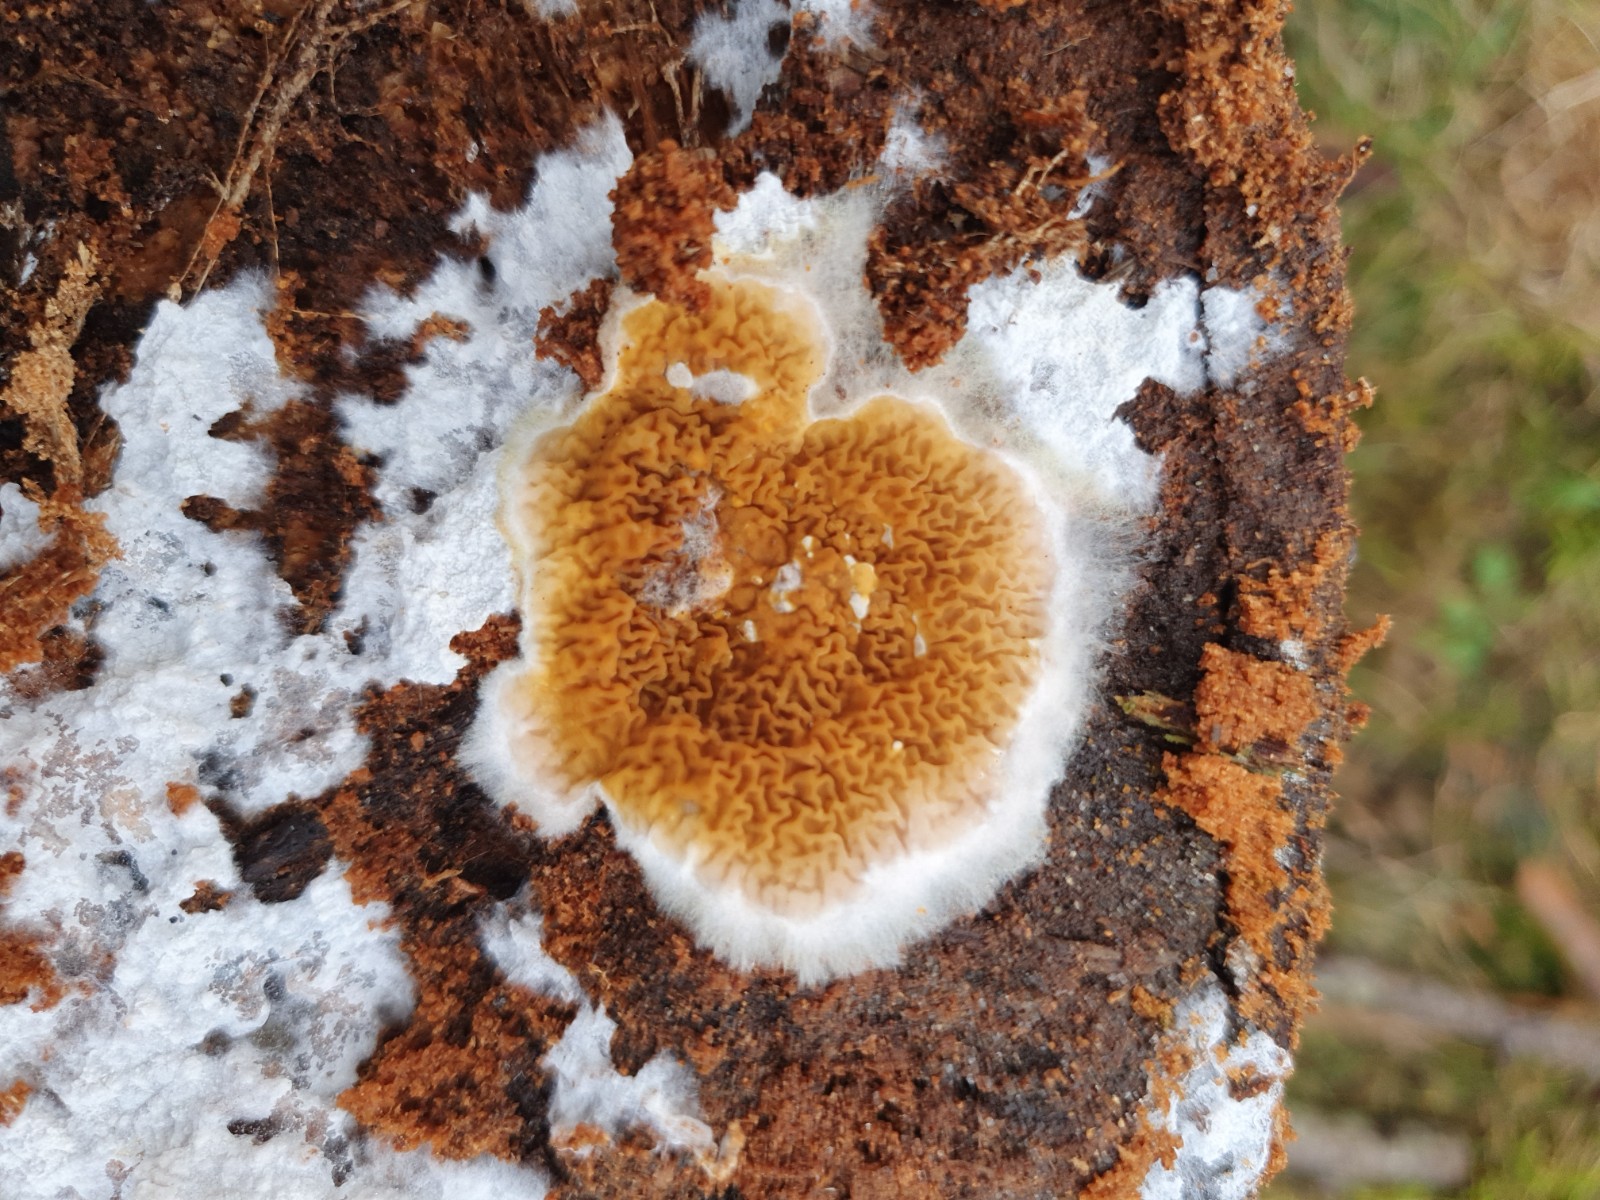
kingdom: Fungi
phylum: Basidiomycota
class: Agaricomycetes
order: Boletales
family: Serpulaceae
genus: Serpula
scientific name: Serpula himantioides
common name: tyndkødet hussvamp
